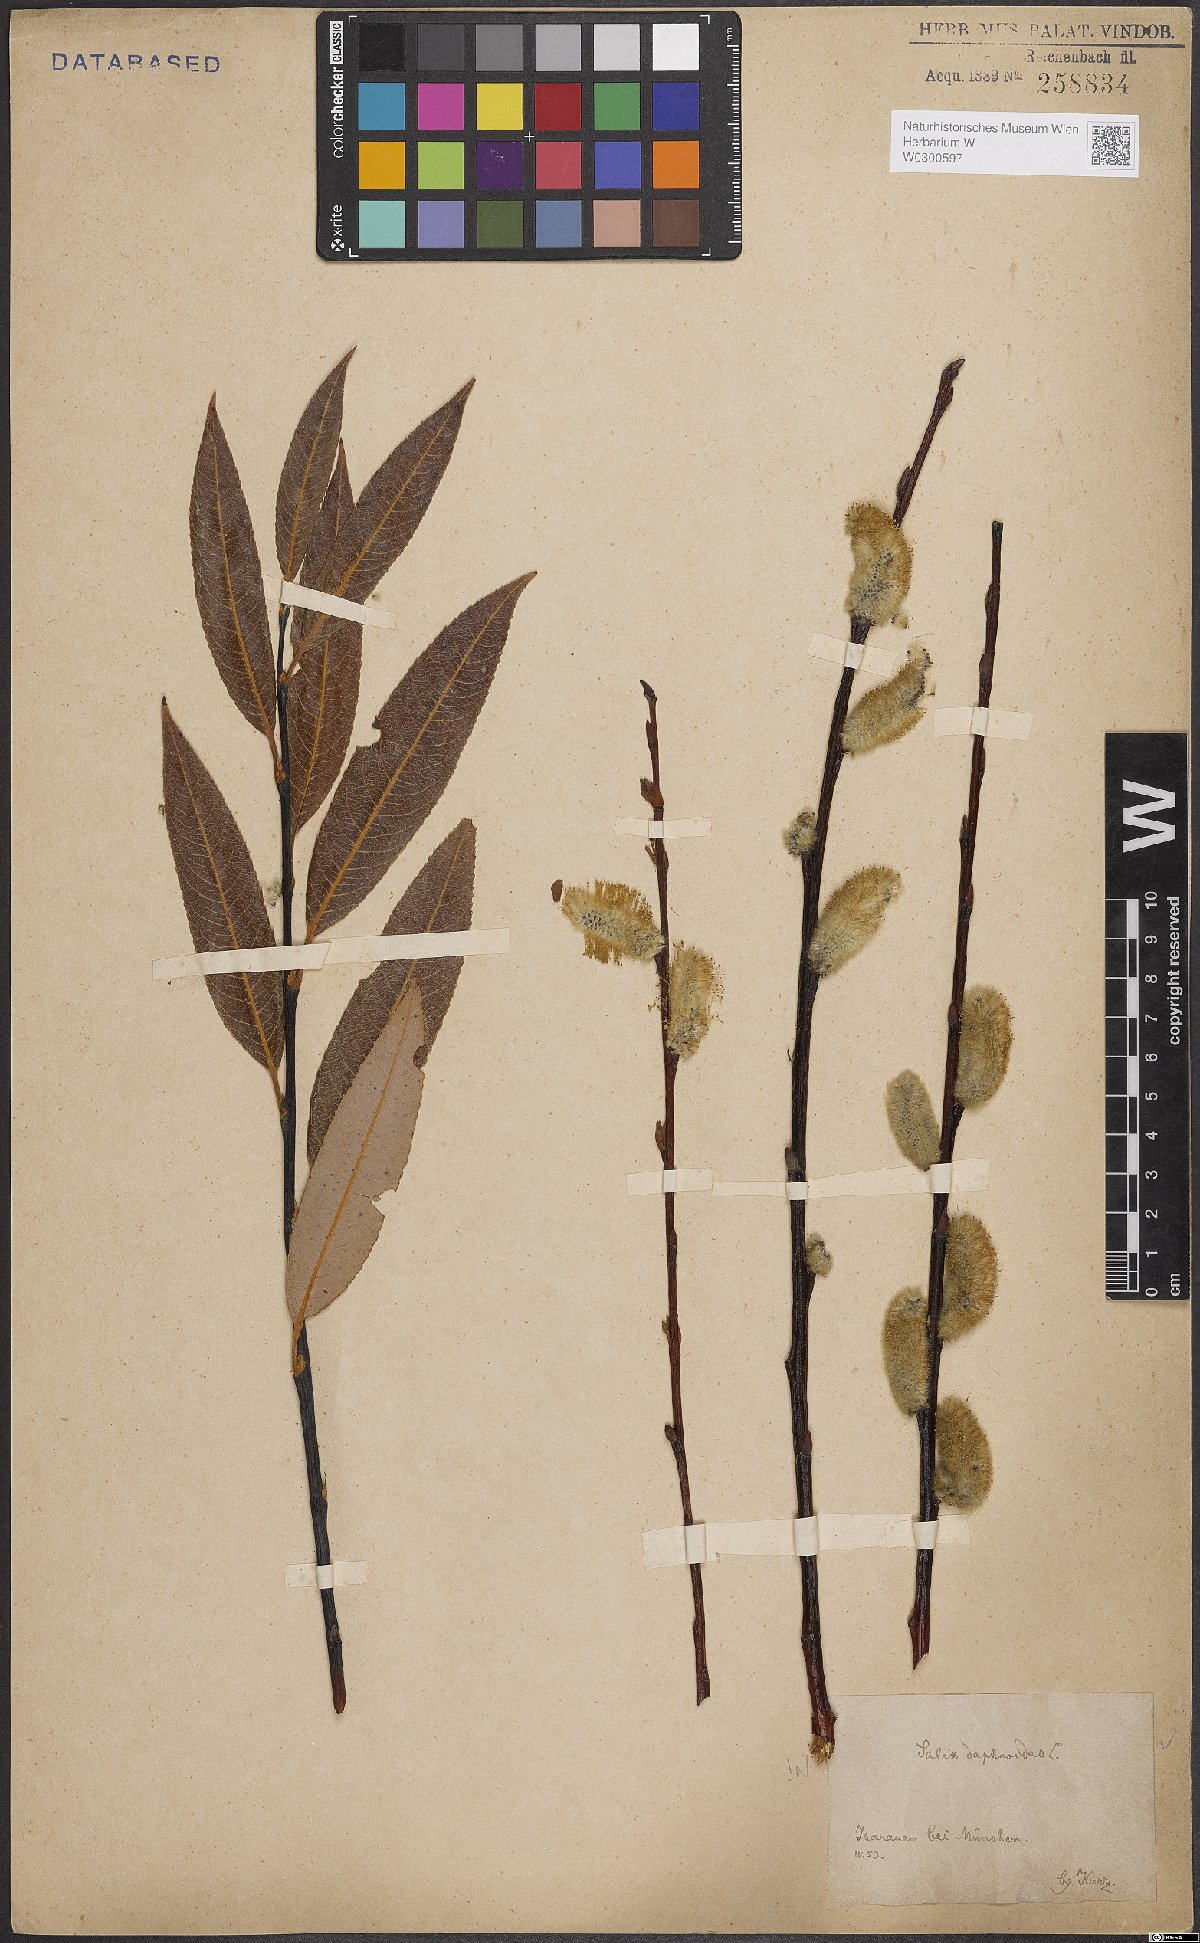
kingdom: Plantae
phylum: Tracheophyta
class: Magnoliopsida
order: Malpighiales
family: Salicaceae
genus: Salix
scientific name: Salix daphnoides
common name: European violet-willow
